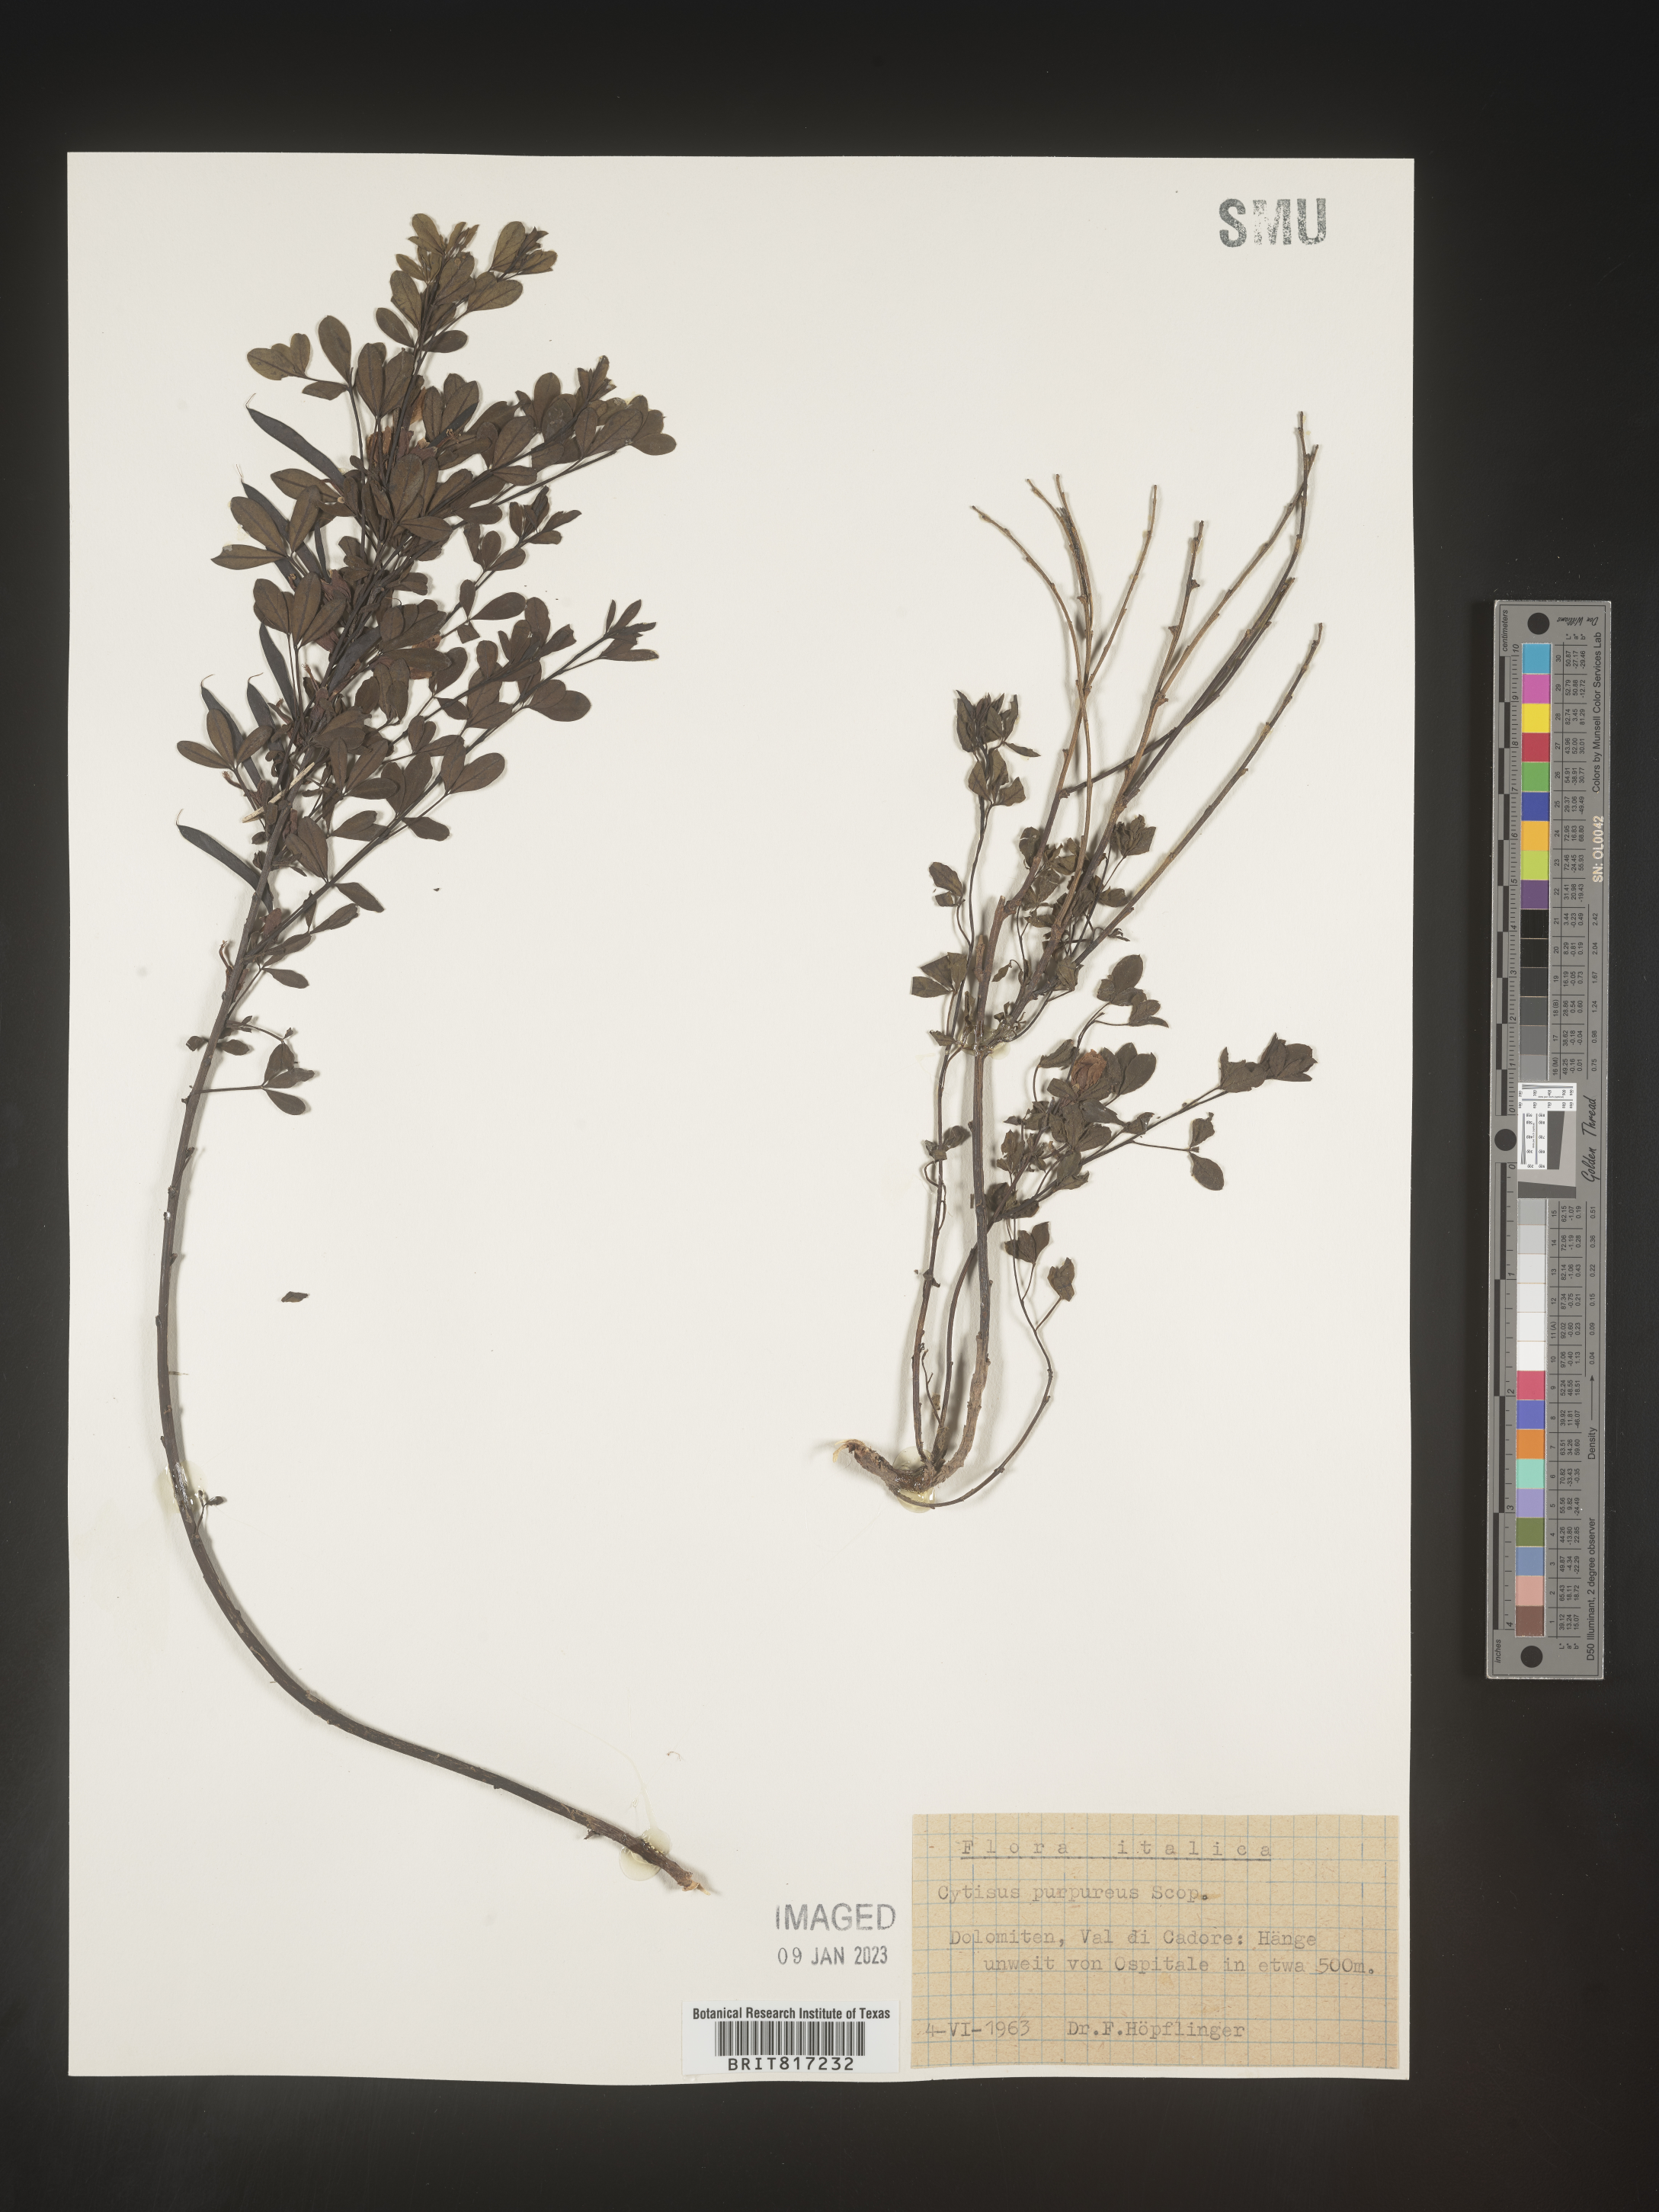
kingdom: Plantae
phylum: Tracheophyta
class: Magnoliopsida
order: Fabales
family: Fabaceae
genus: Cytisus
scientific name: Cytisus
